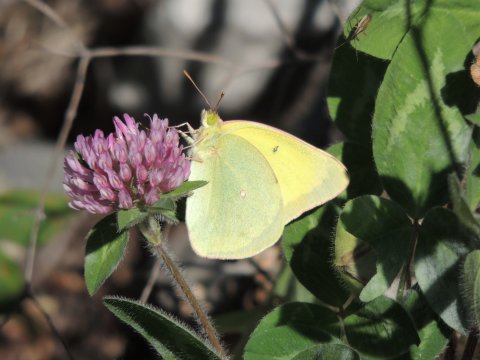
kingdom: Animalia
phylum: Arthropoda
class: Insecta
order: Lepidoptera
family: Pieridae
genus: Colias
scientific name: Colias alexandra
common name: Queen Alexandra's Sulphur
